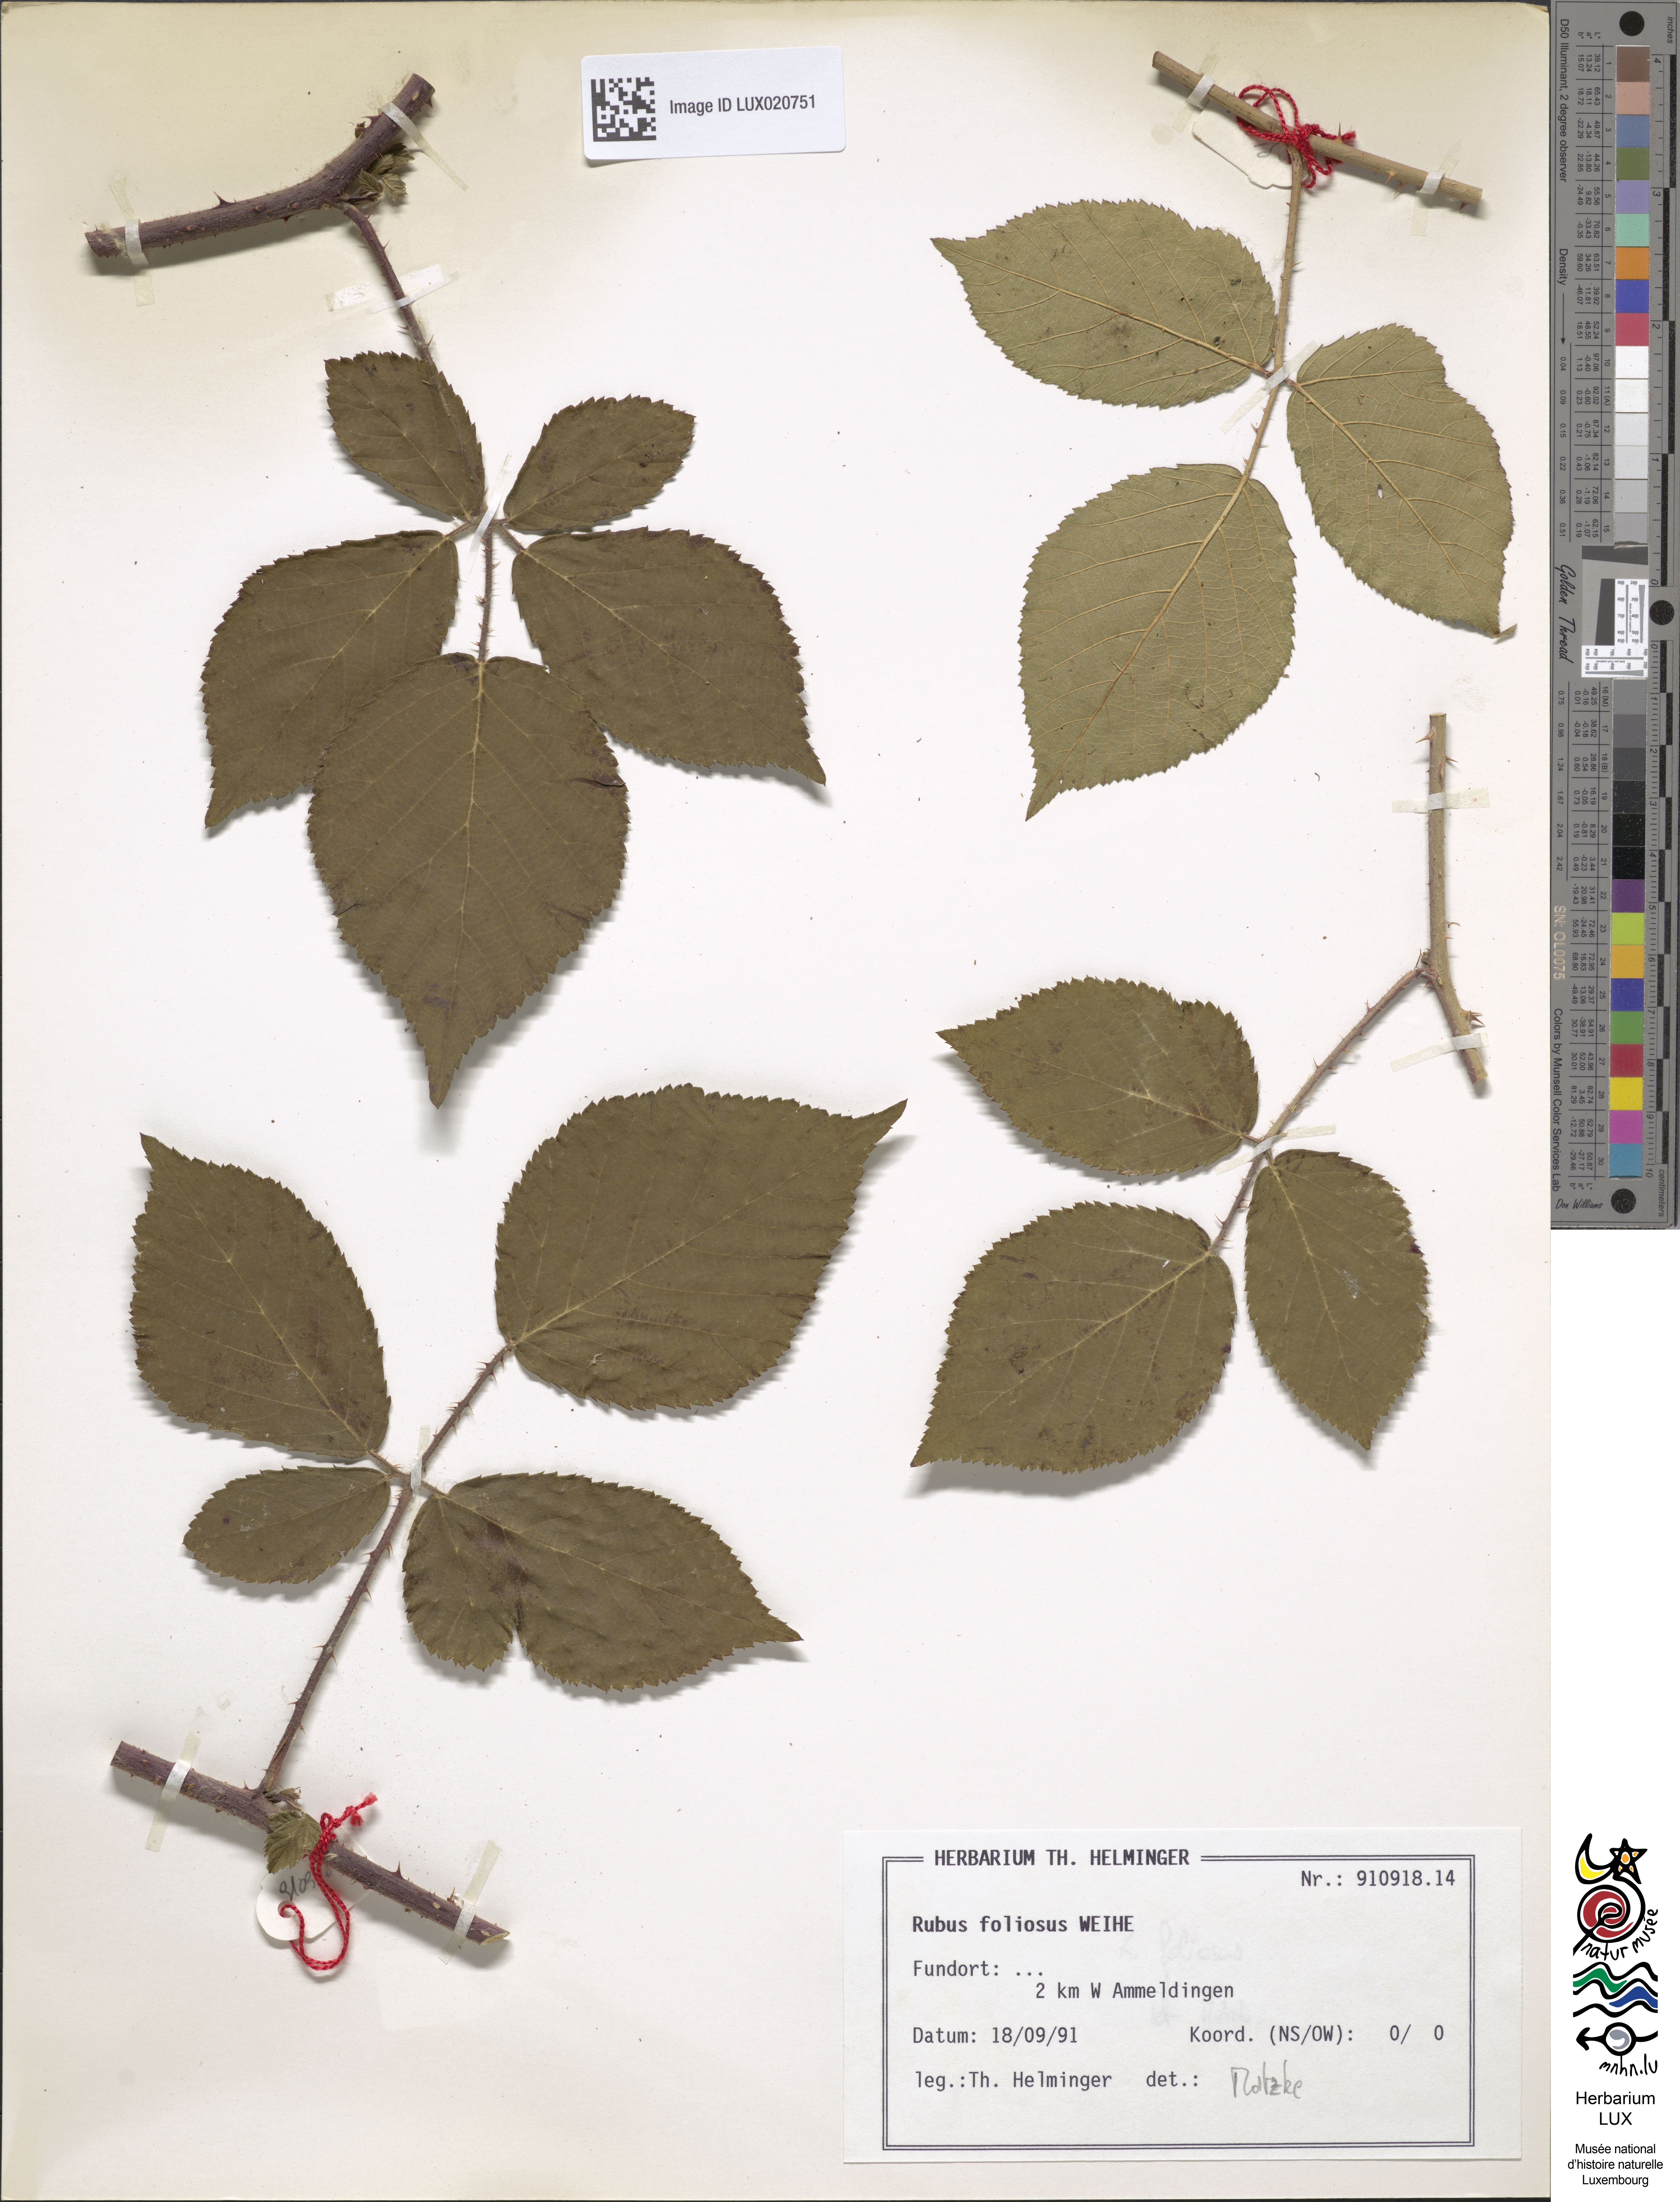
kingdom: Plantae
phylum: Tracheophyta
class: Magnoliopsida
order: Rosales
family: Rosaceae
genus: Rubus
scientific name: Rubus foliosus
